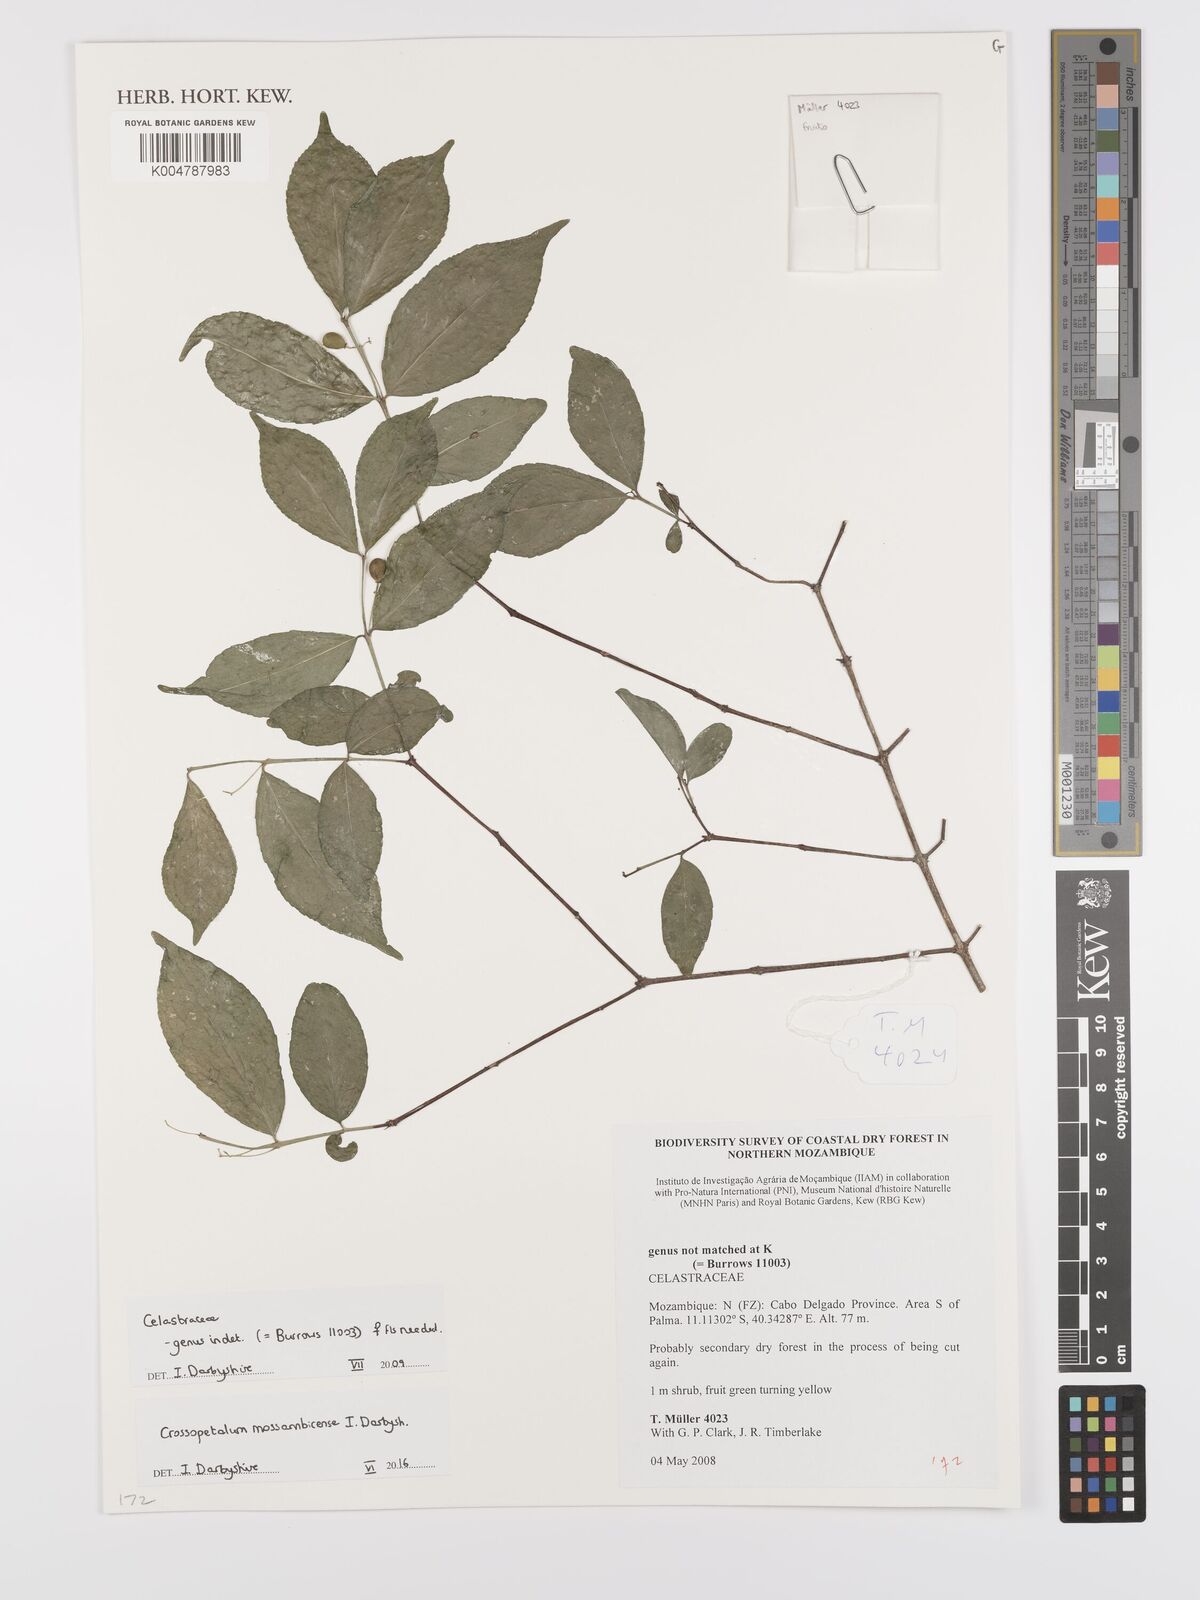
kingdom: Plantae
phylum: Tracheophyta
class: Magnoliopsida
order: Celastrales
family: Celastraceae
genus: Crossopetalum
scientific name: Crossopetalum mossambicense
